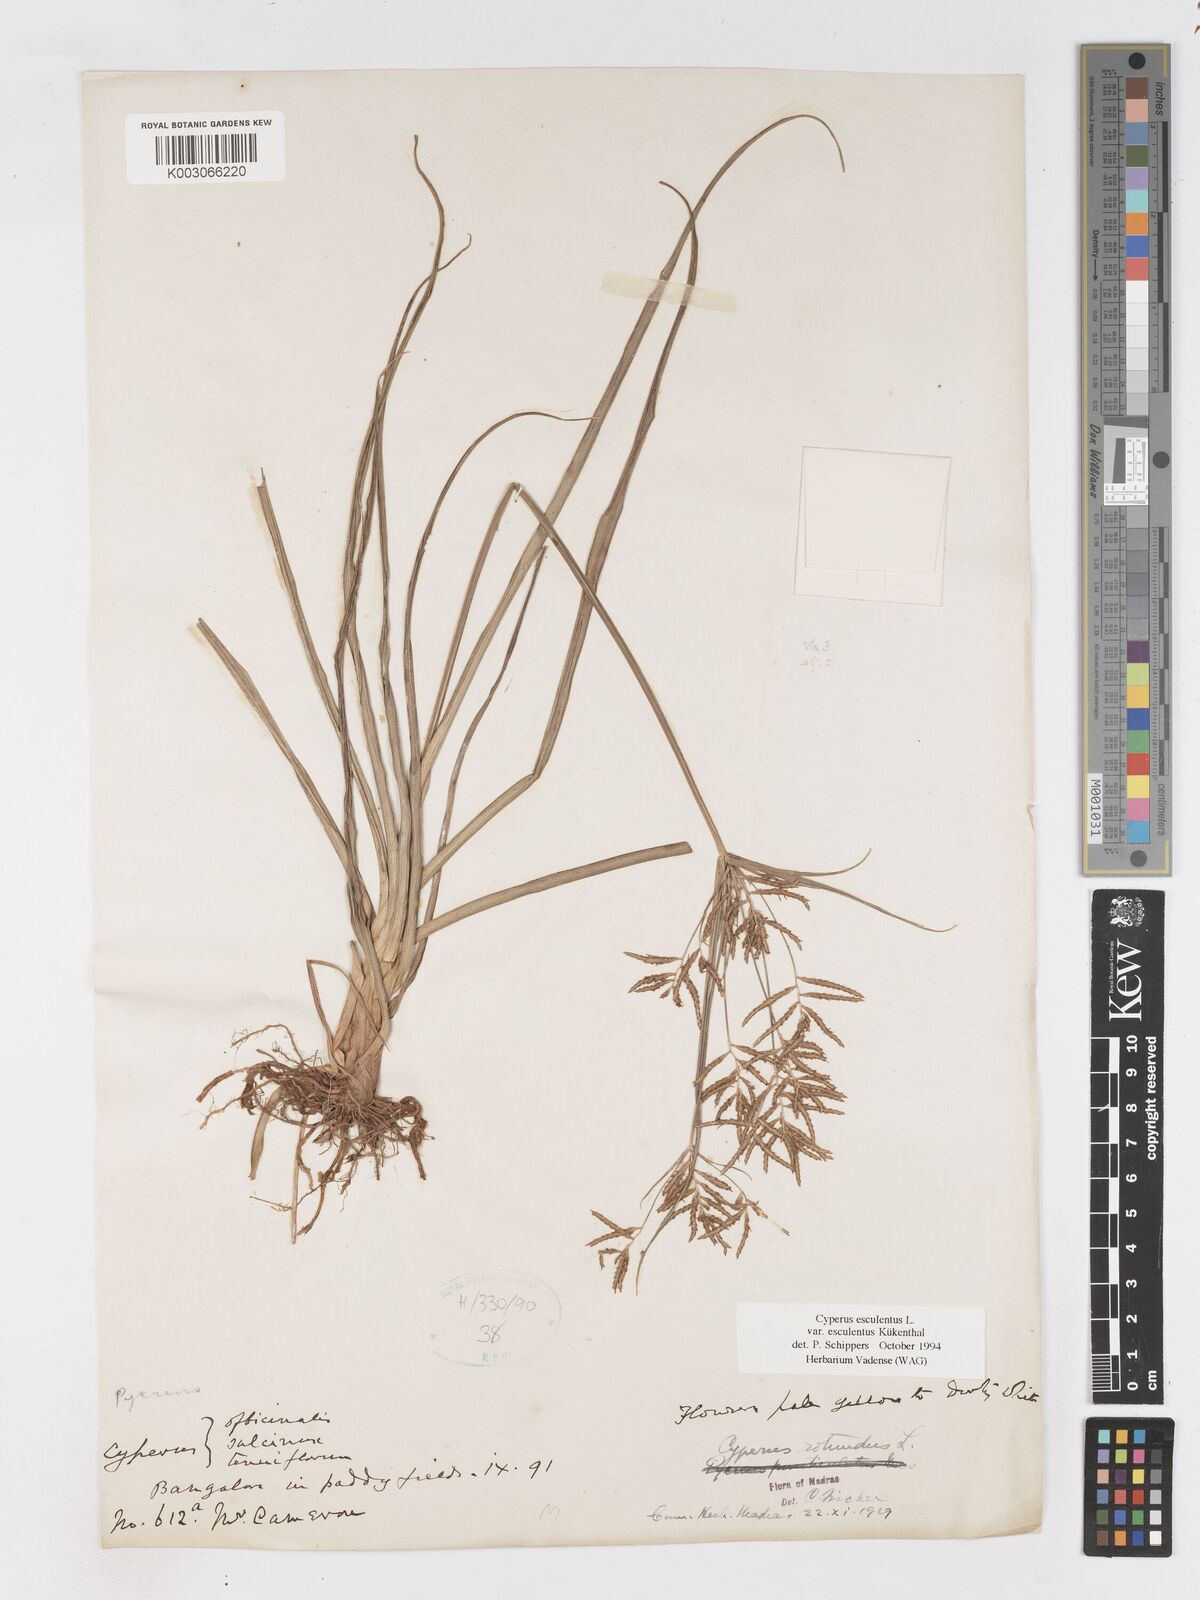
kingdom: Plantae
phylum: Tracheophyta
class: Liliopsida
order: Poales
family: Cyperaceae
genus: Cyperus
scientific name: Cyperus esculentus
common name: Yellow nutsedge
